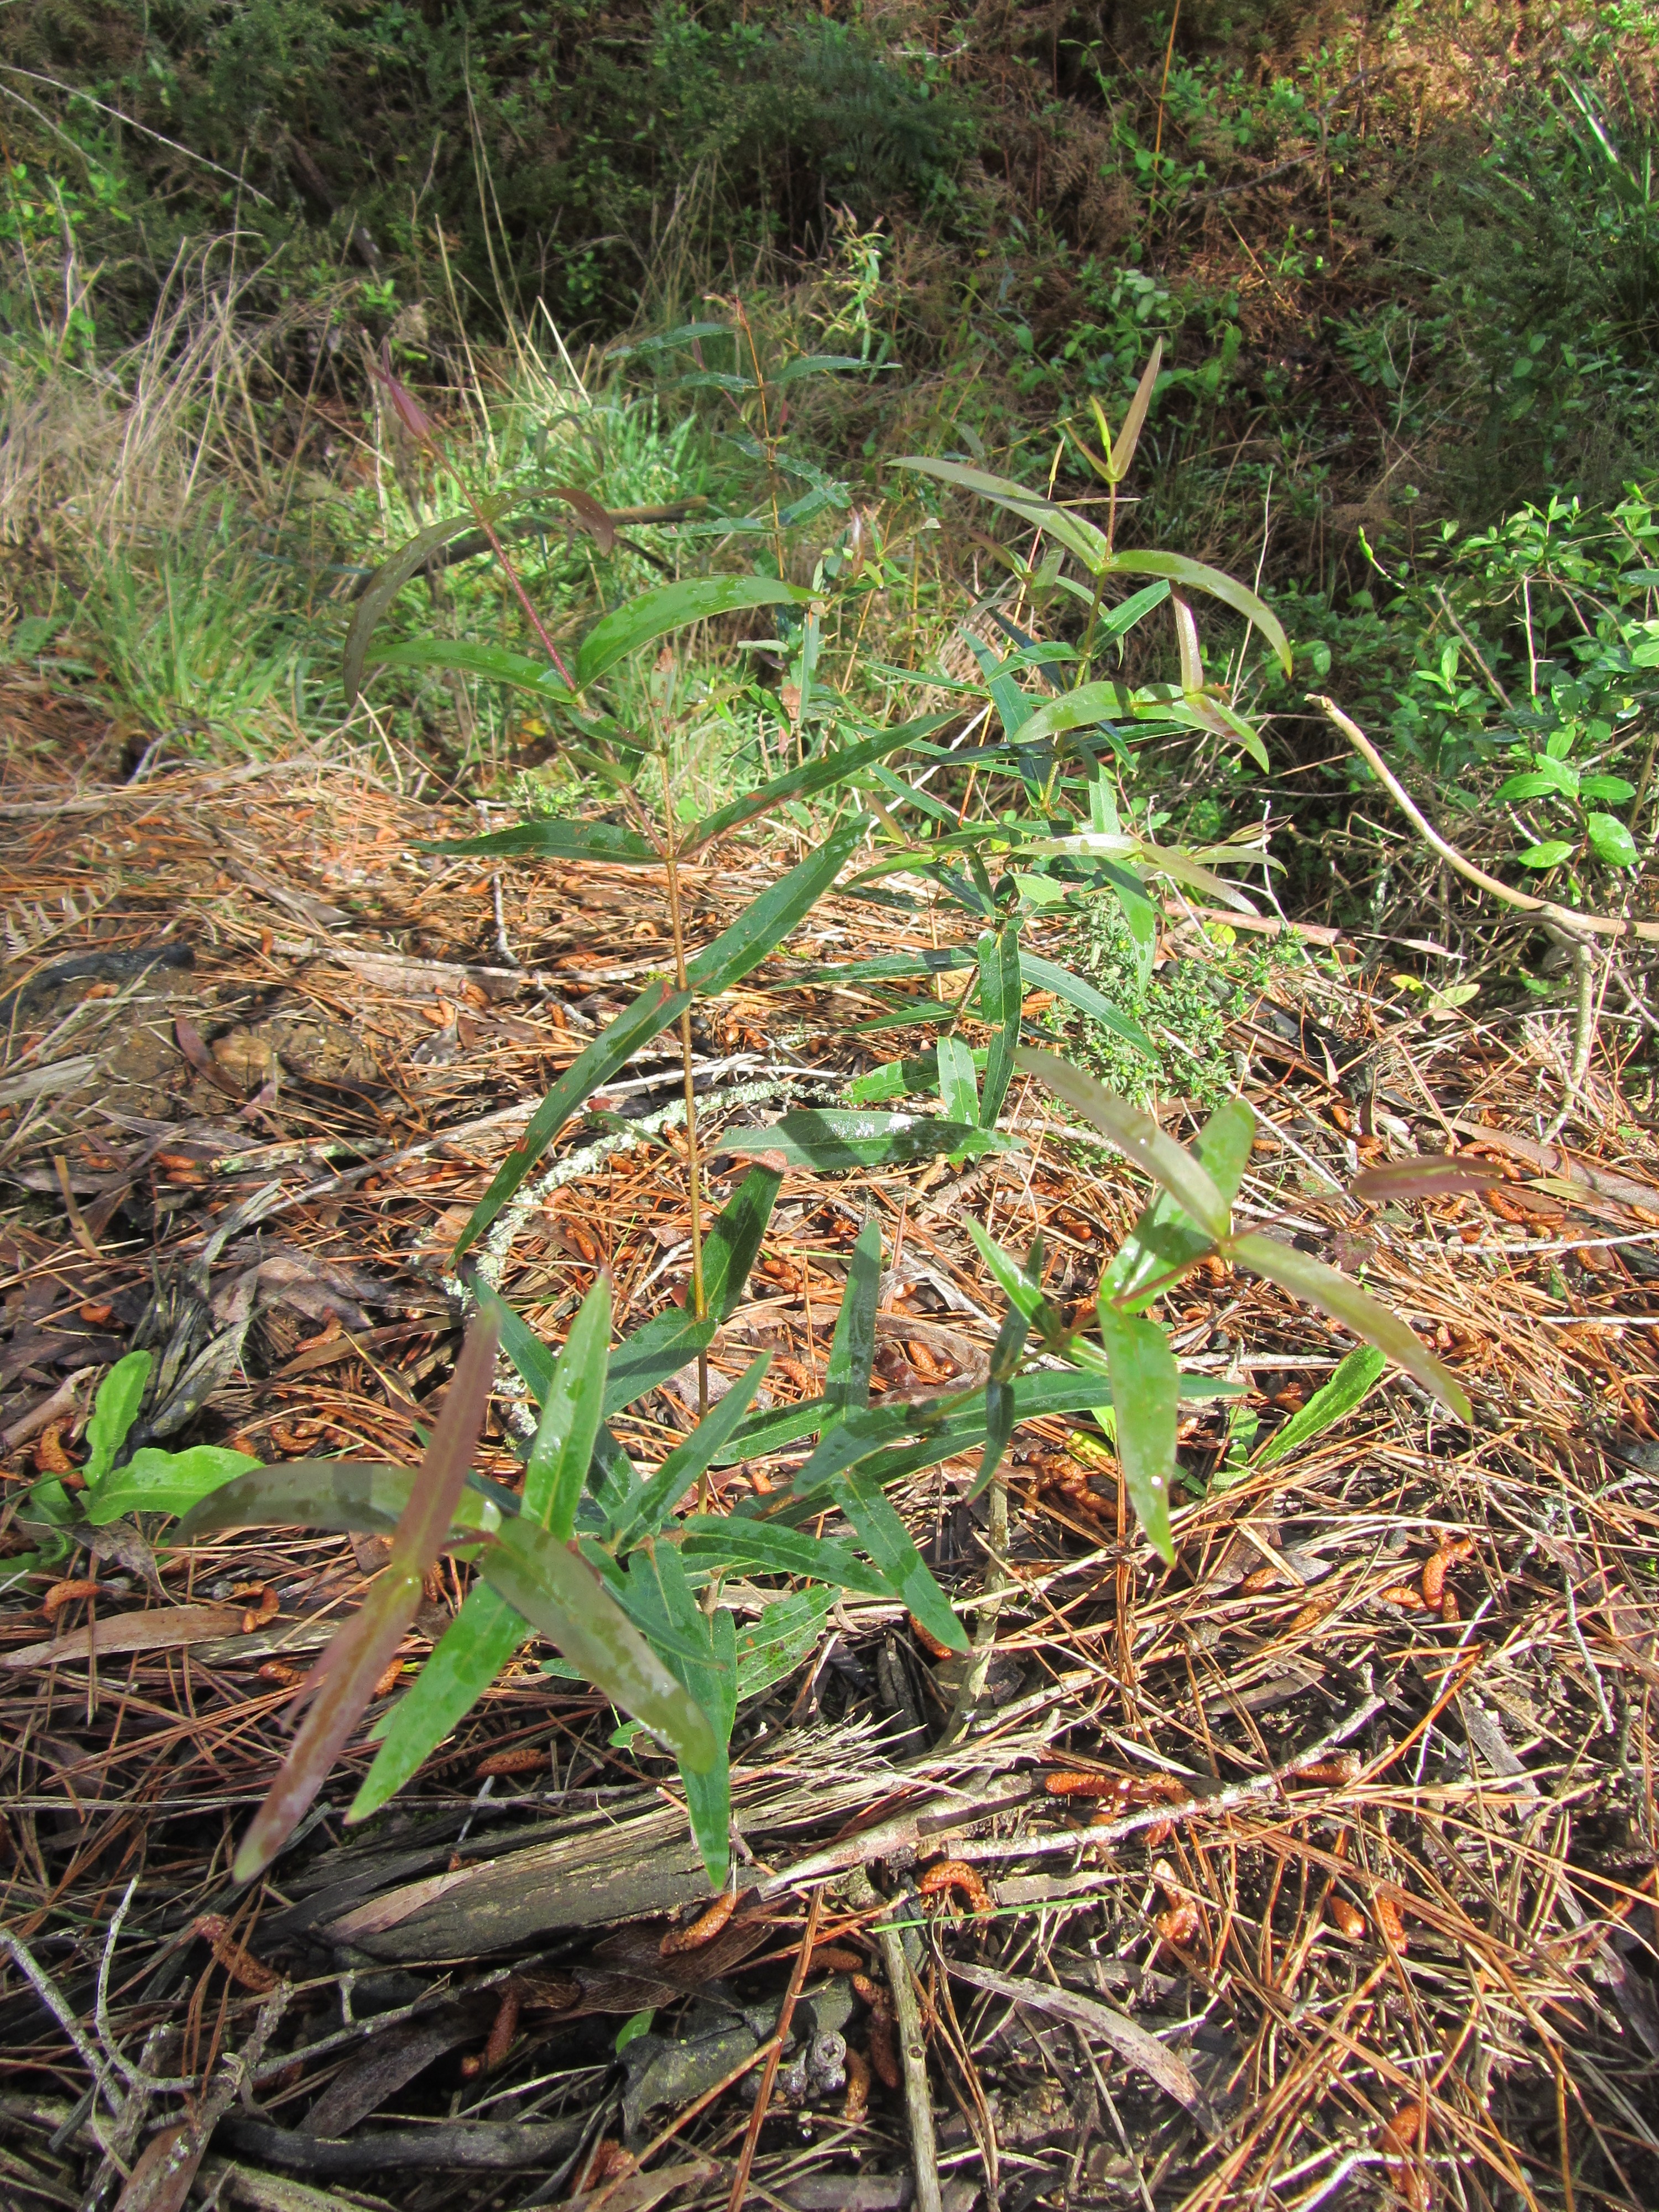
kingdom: Plantae
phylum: Tracheophyta
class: Magnoliopsida
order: Myrtales
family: Myrtaceae
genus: Eucalyptus
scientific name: Eucalyptus radiata
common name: Narrow-leaved-peppermint
